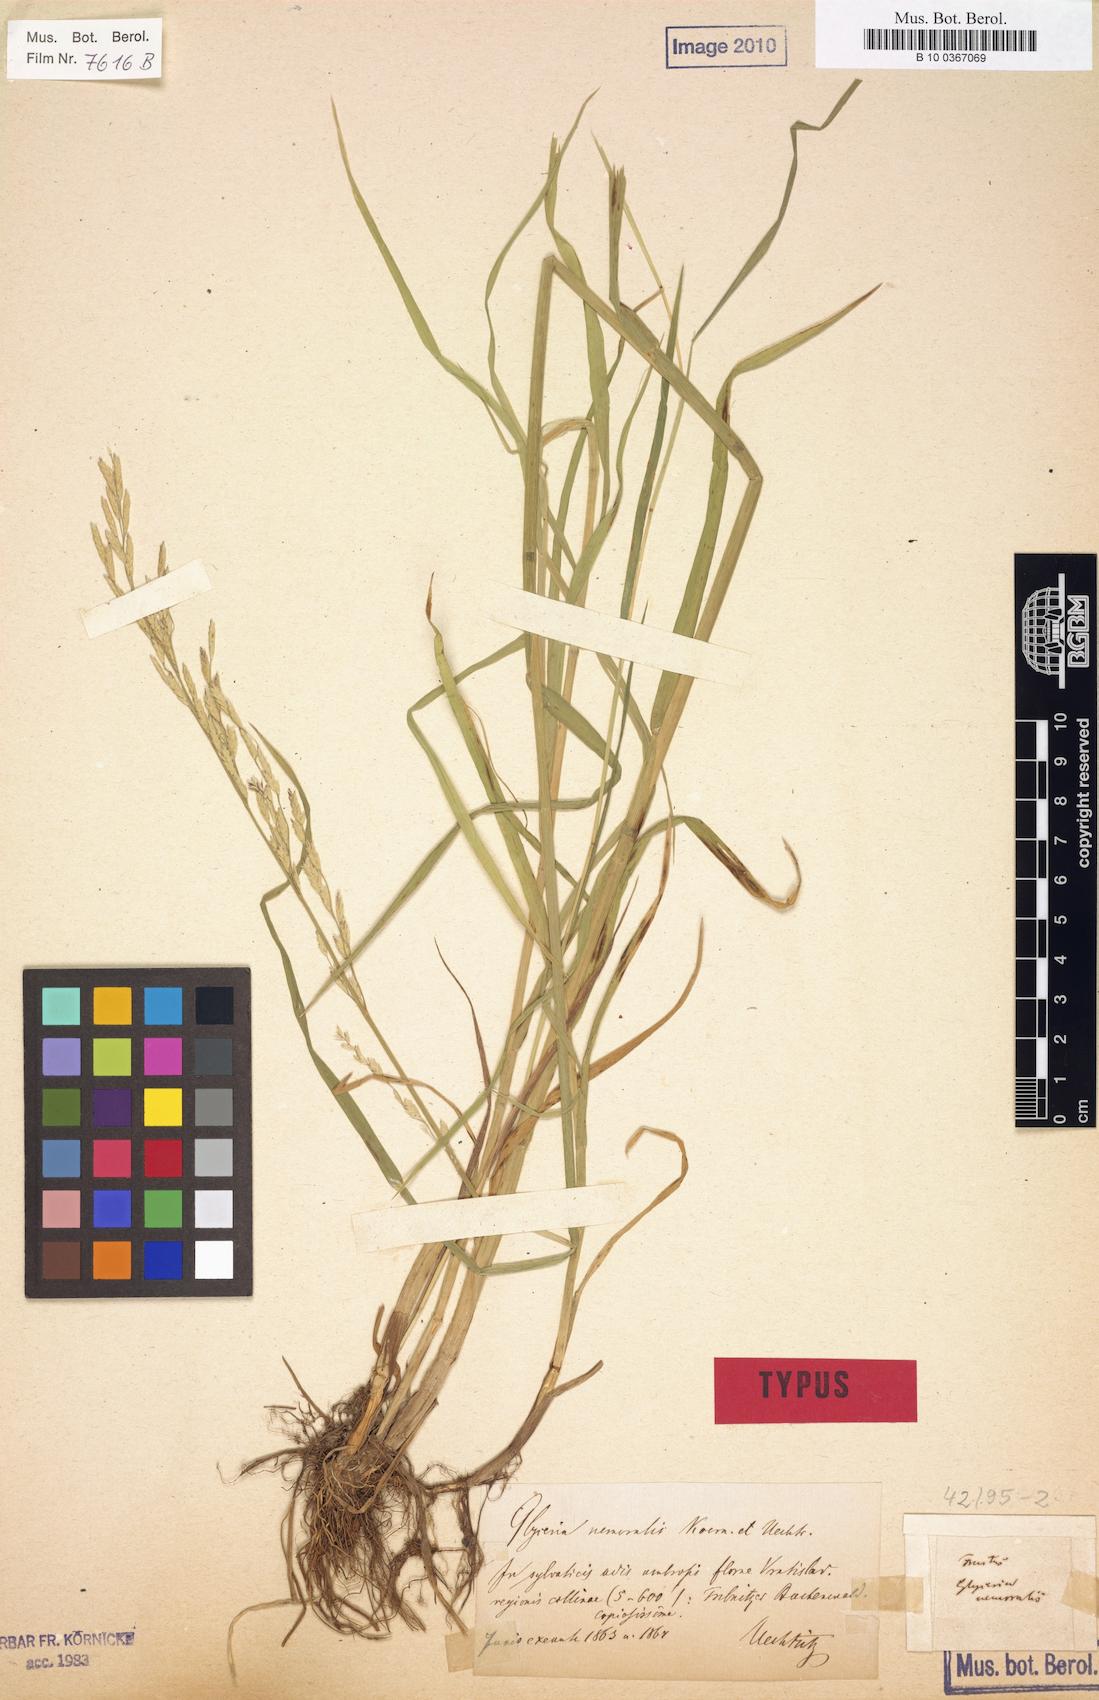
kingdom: Plantae
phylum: Tracheophyta
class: Liliopsida
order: Poales
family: Poaceae
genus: Glyceria
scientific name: Glyceria nemoralis
